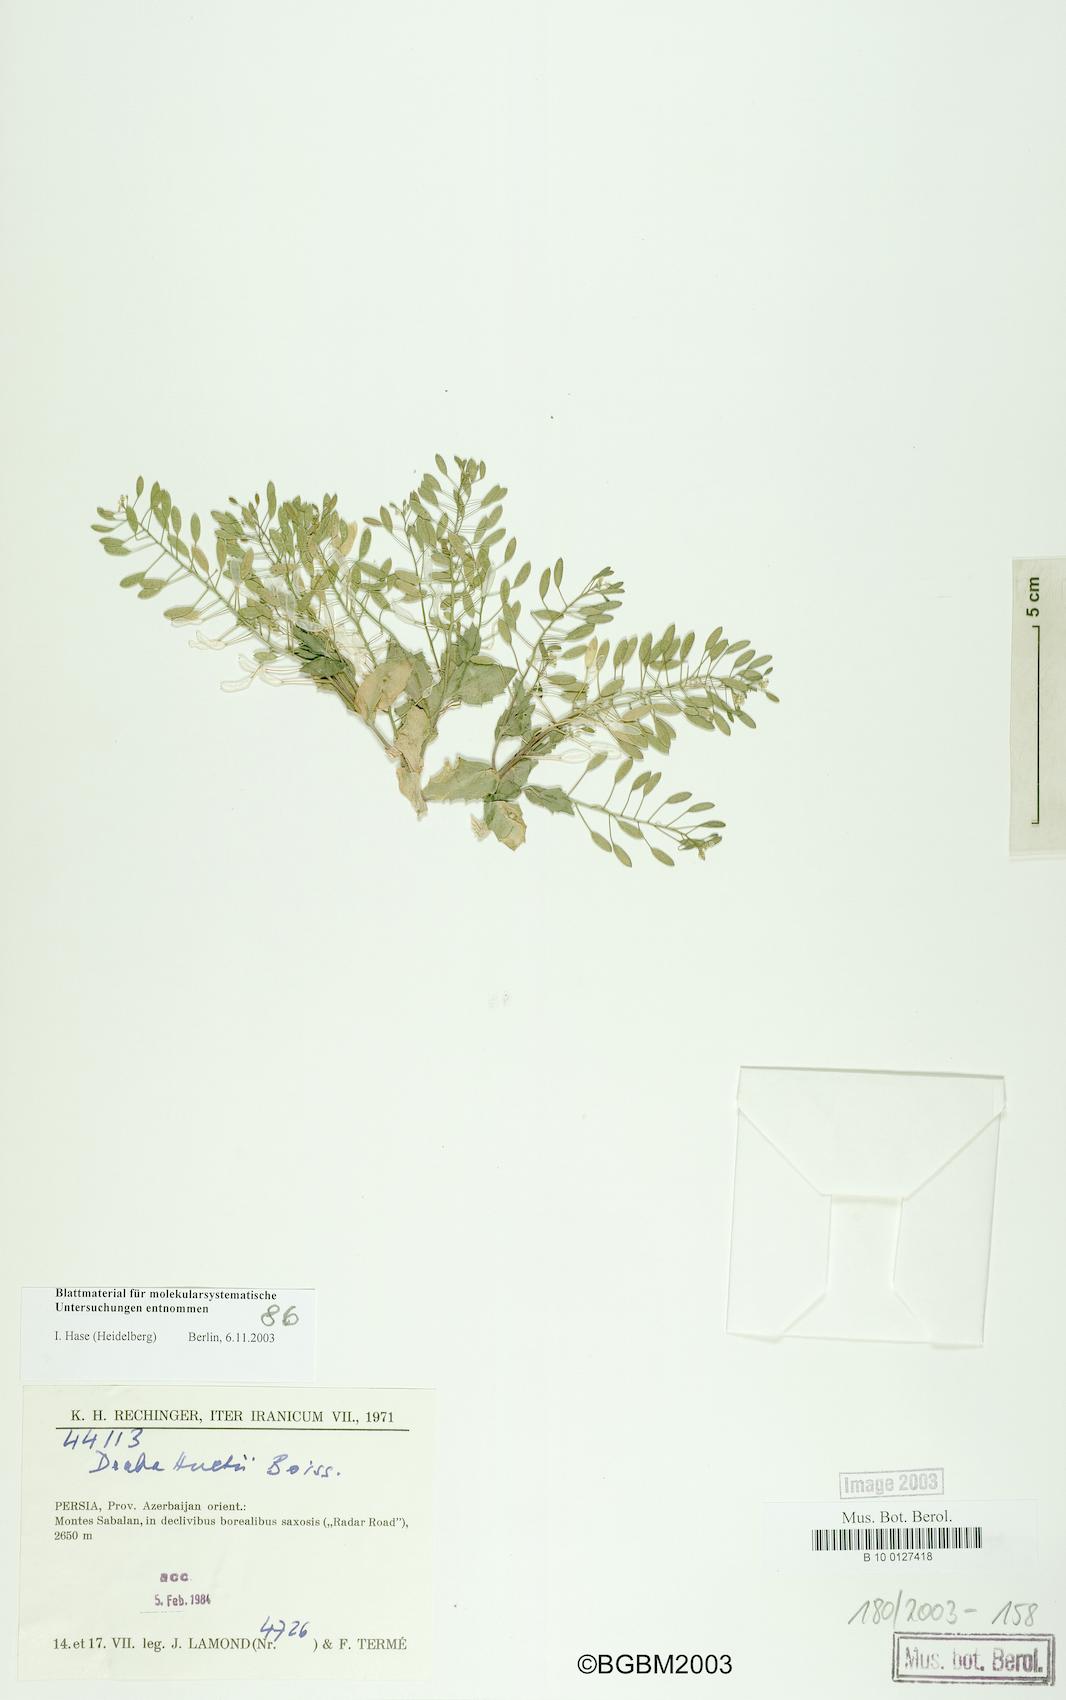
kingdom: Plantae
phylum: Tracheophyta
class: Magnoliopsida
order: Brassicales
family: Brassicaceae
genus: Draba
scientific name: Draba huetii
